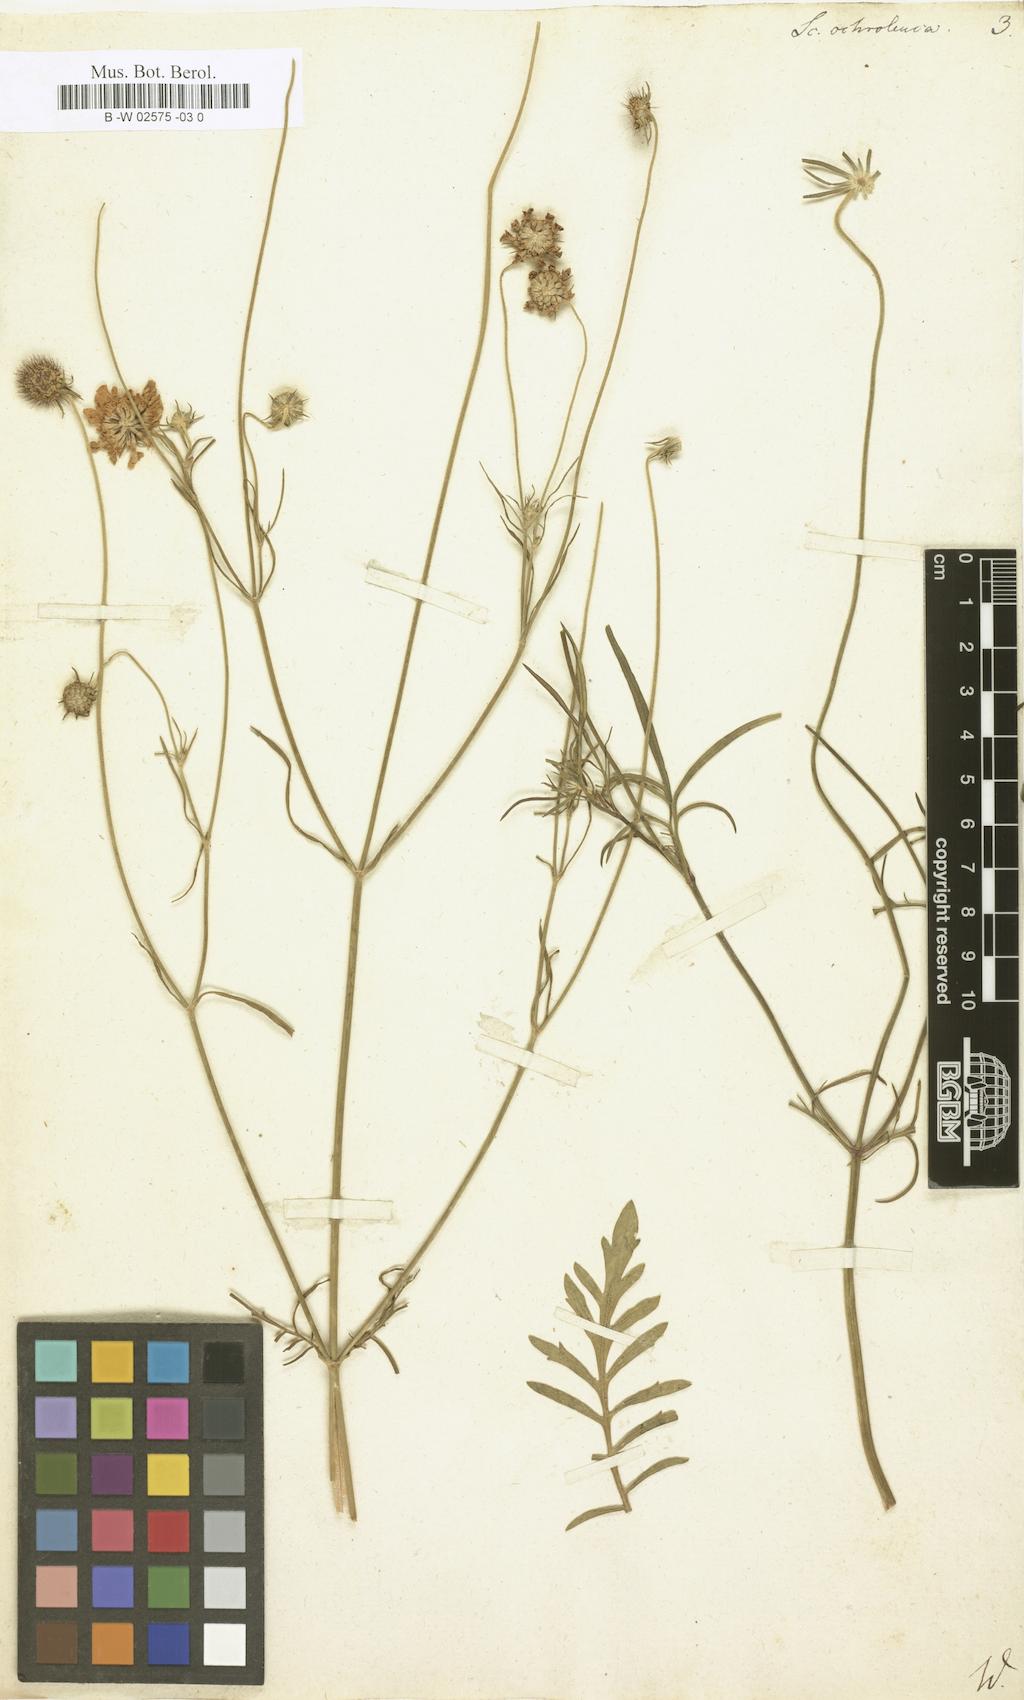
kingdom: Plantae
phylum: Tracheophyta
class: Magnoliopsida
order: Dipsacales
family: Caprifoliaceae
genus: Scabiosa
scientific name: Scabiosa ochroleuca
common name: Cream pincushions
